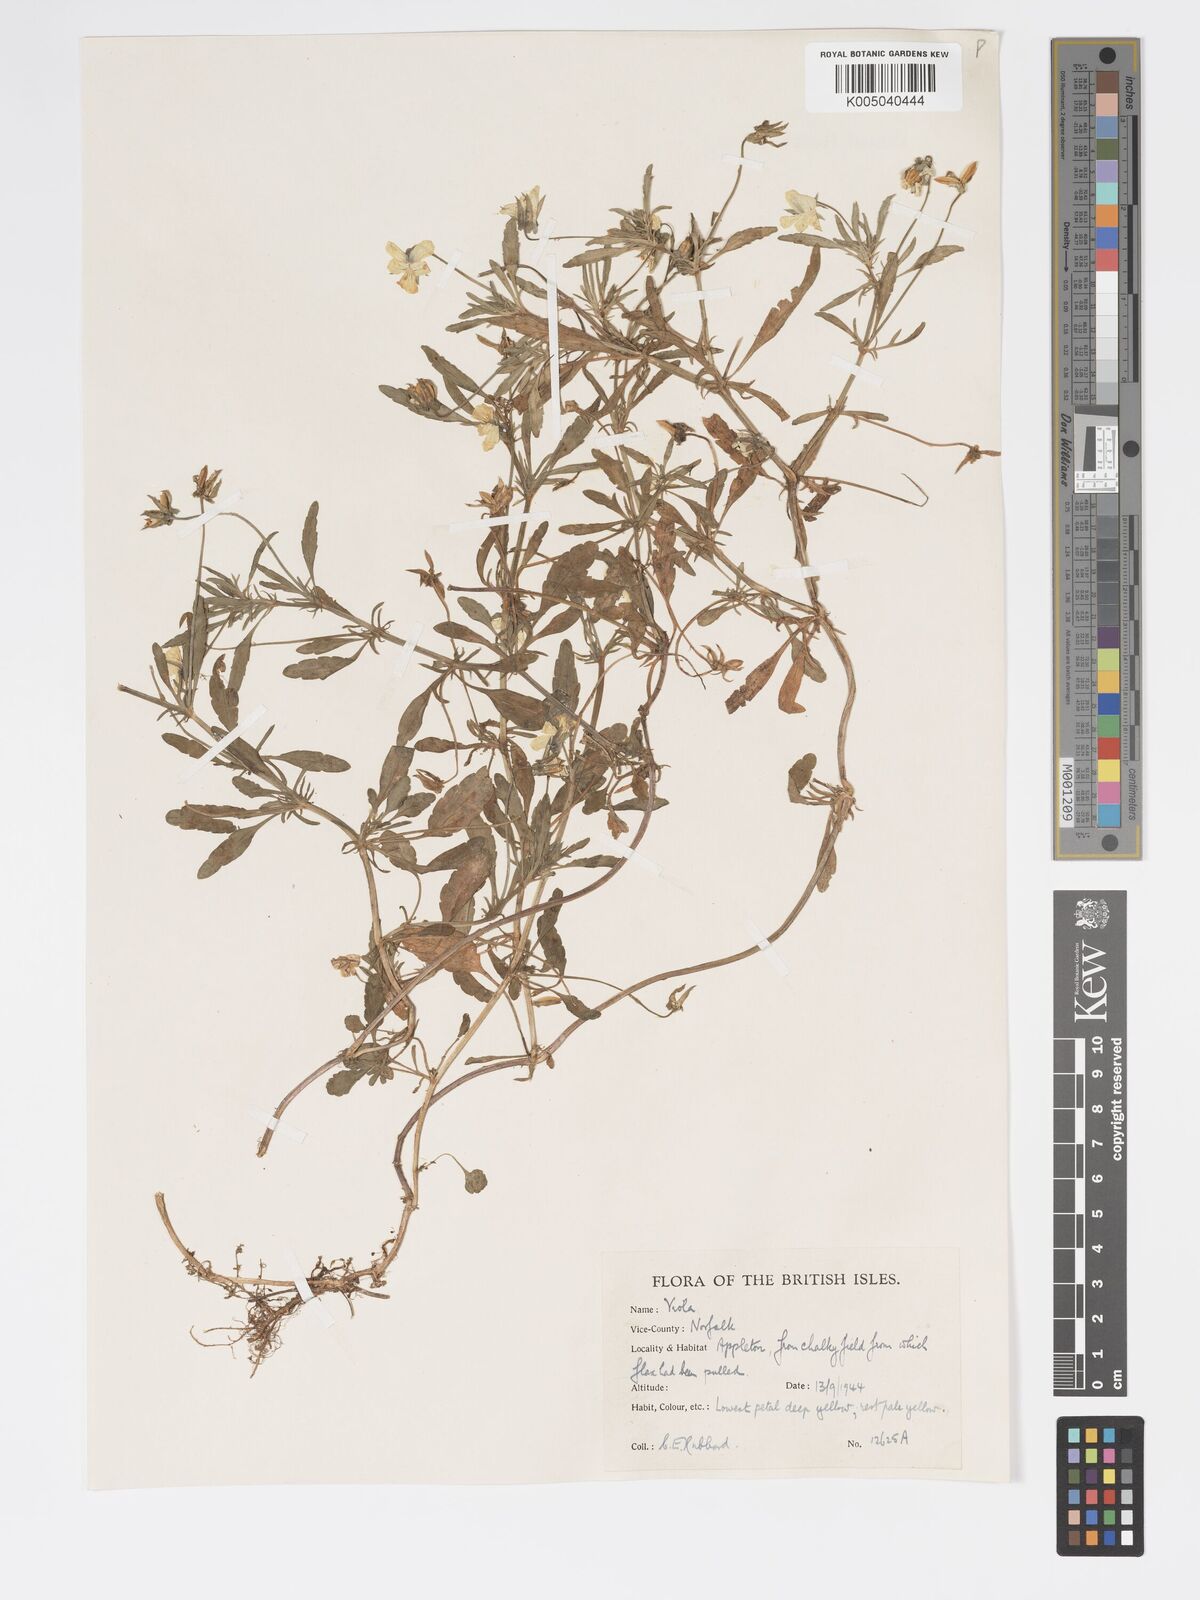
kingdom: Plantae
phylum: Tracheophyta
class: Magnoliopsida
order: Malpighiales
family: Violaceae
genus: Viola
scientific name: Viola arvensis
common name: Field pansy
